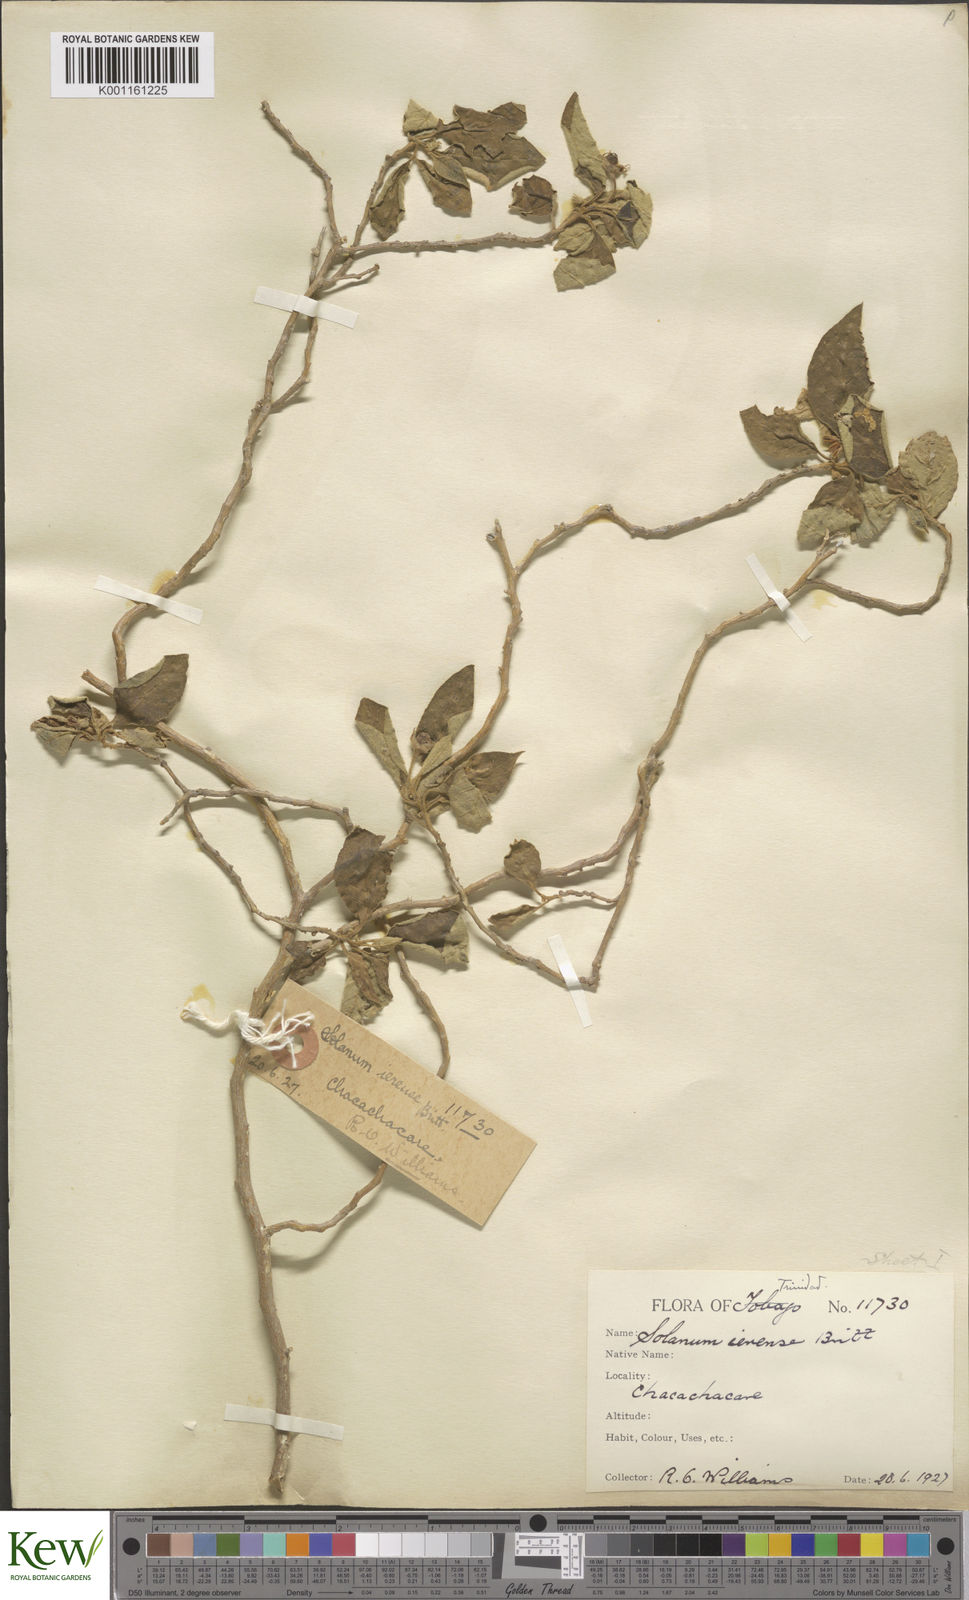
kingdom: Plantae
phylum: Tracheophyta
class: Magnoliopsida
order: Solanales
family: Solanaceae
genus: Solanum
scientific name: Solanum gardneri
